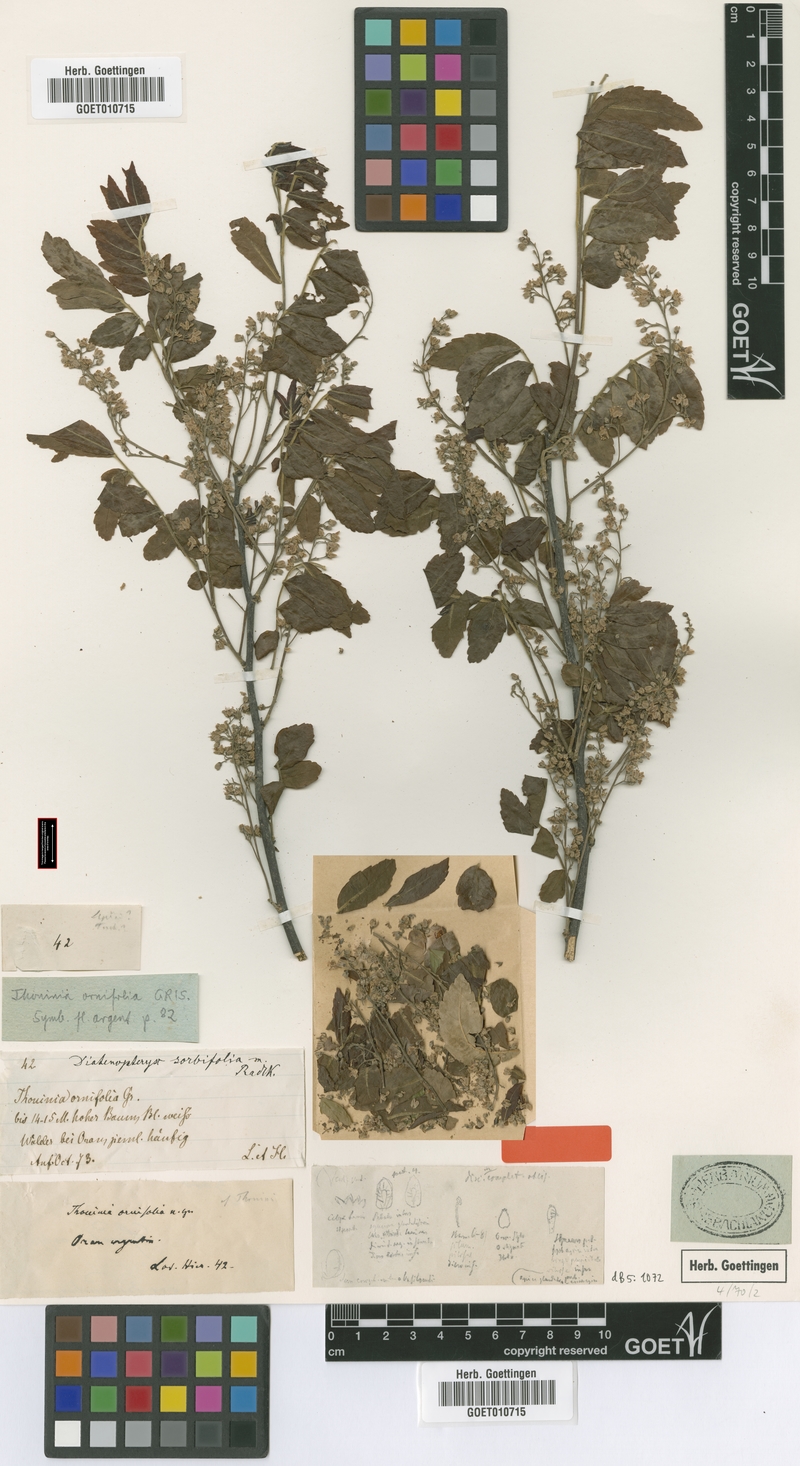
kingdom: Plantae
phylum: Tracheophyta
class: Magnoliopsida
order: Sapindales
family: Sapindaceae
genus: Diatenopteryx
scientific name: Diatenopteryx sorbifolia
